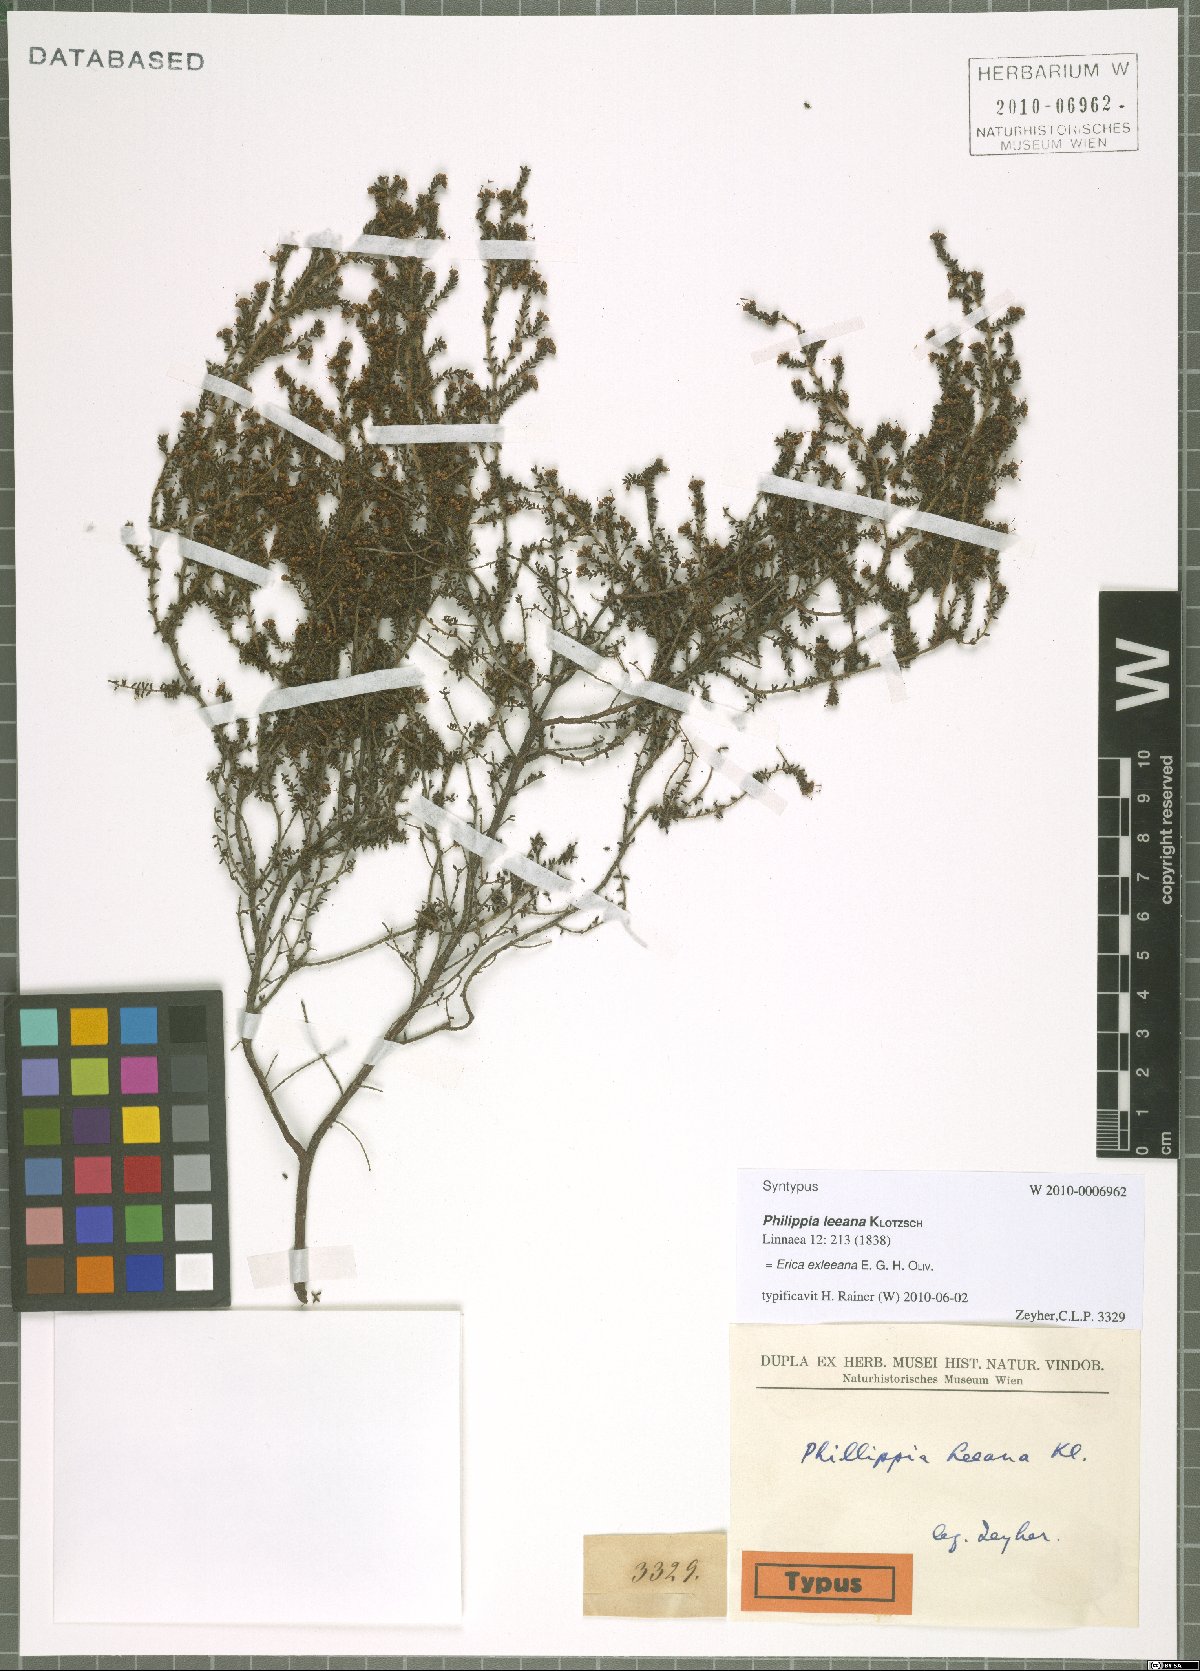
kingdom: Plantae
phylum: Tracheophyta
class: Magnoliopsida
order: Ericales
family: Ericaceae
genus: Erica
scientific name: Erica exleeana
